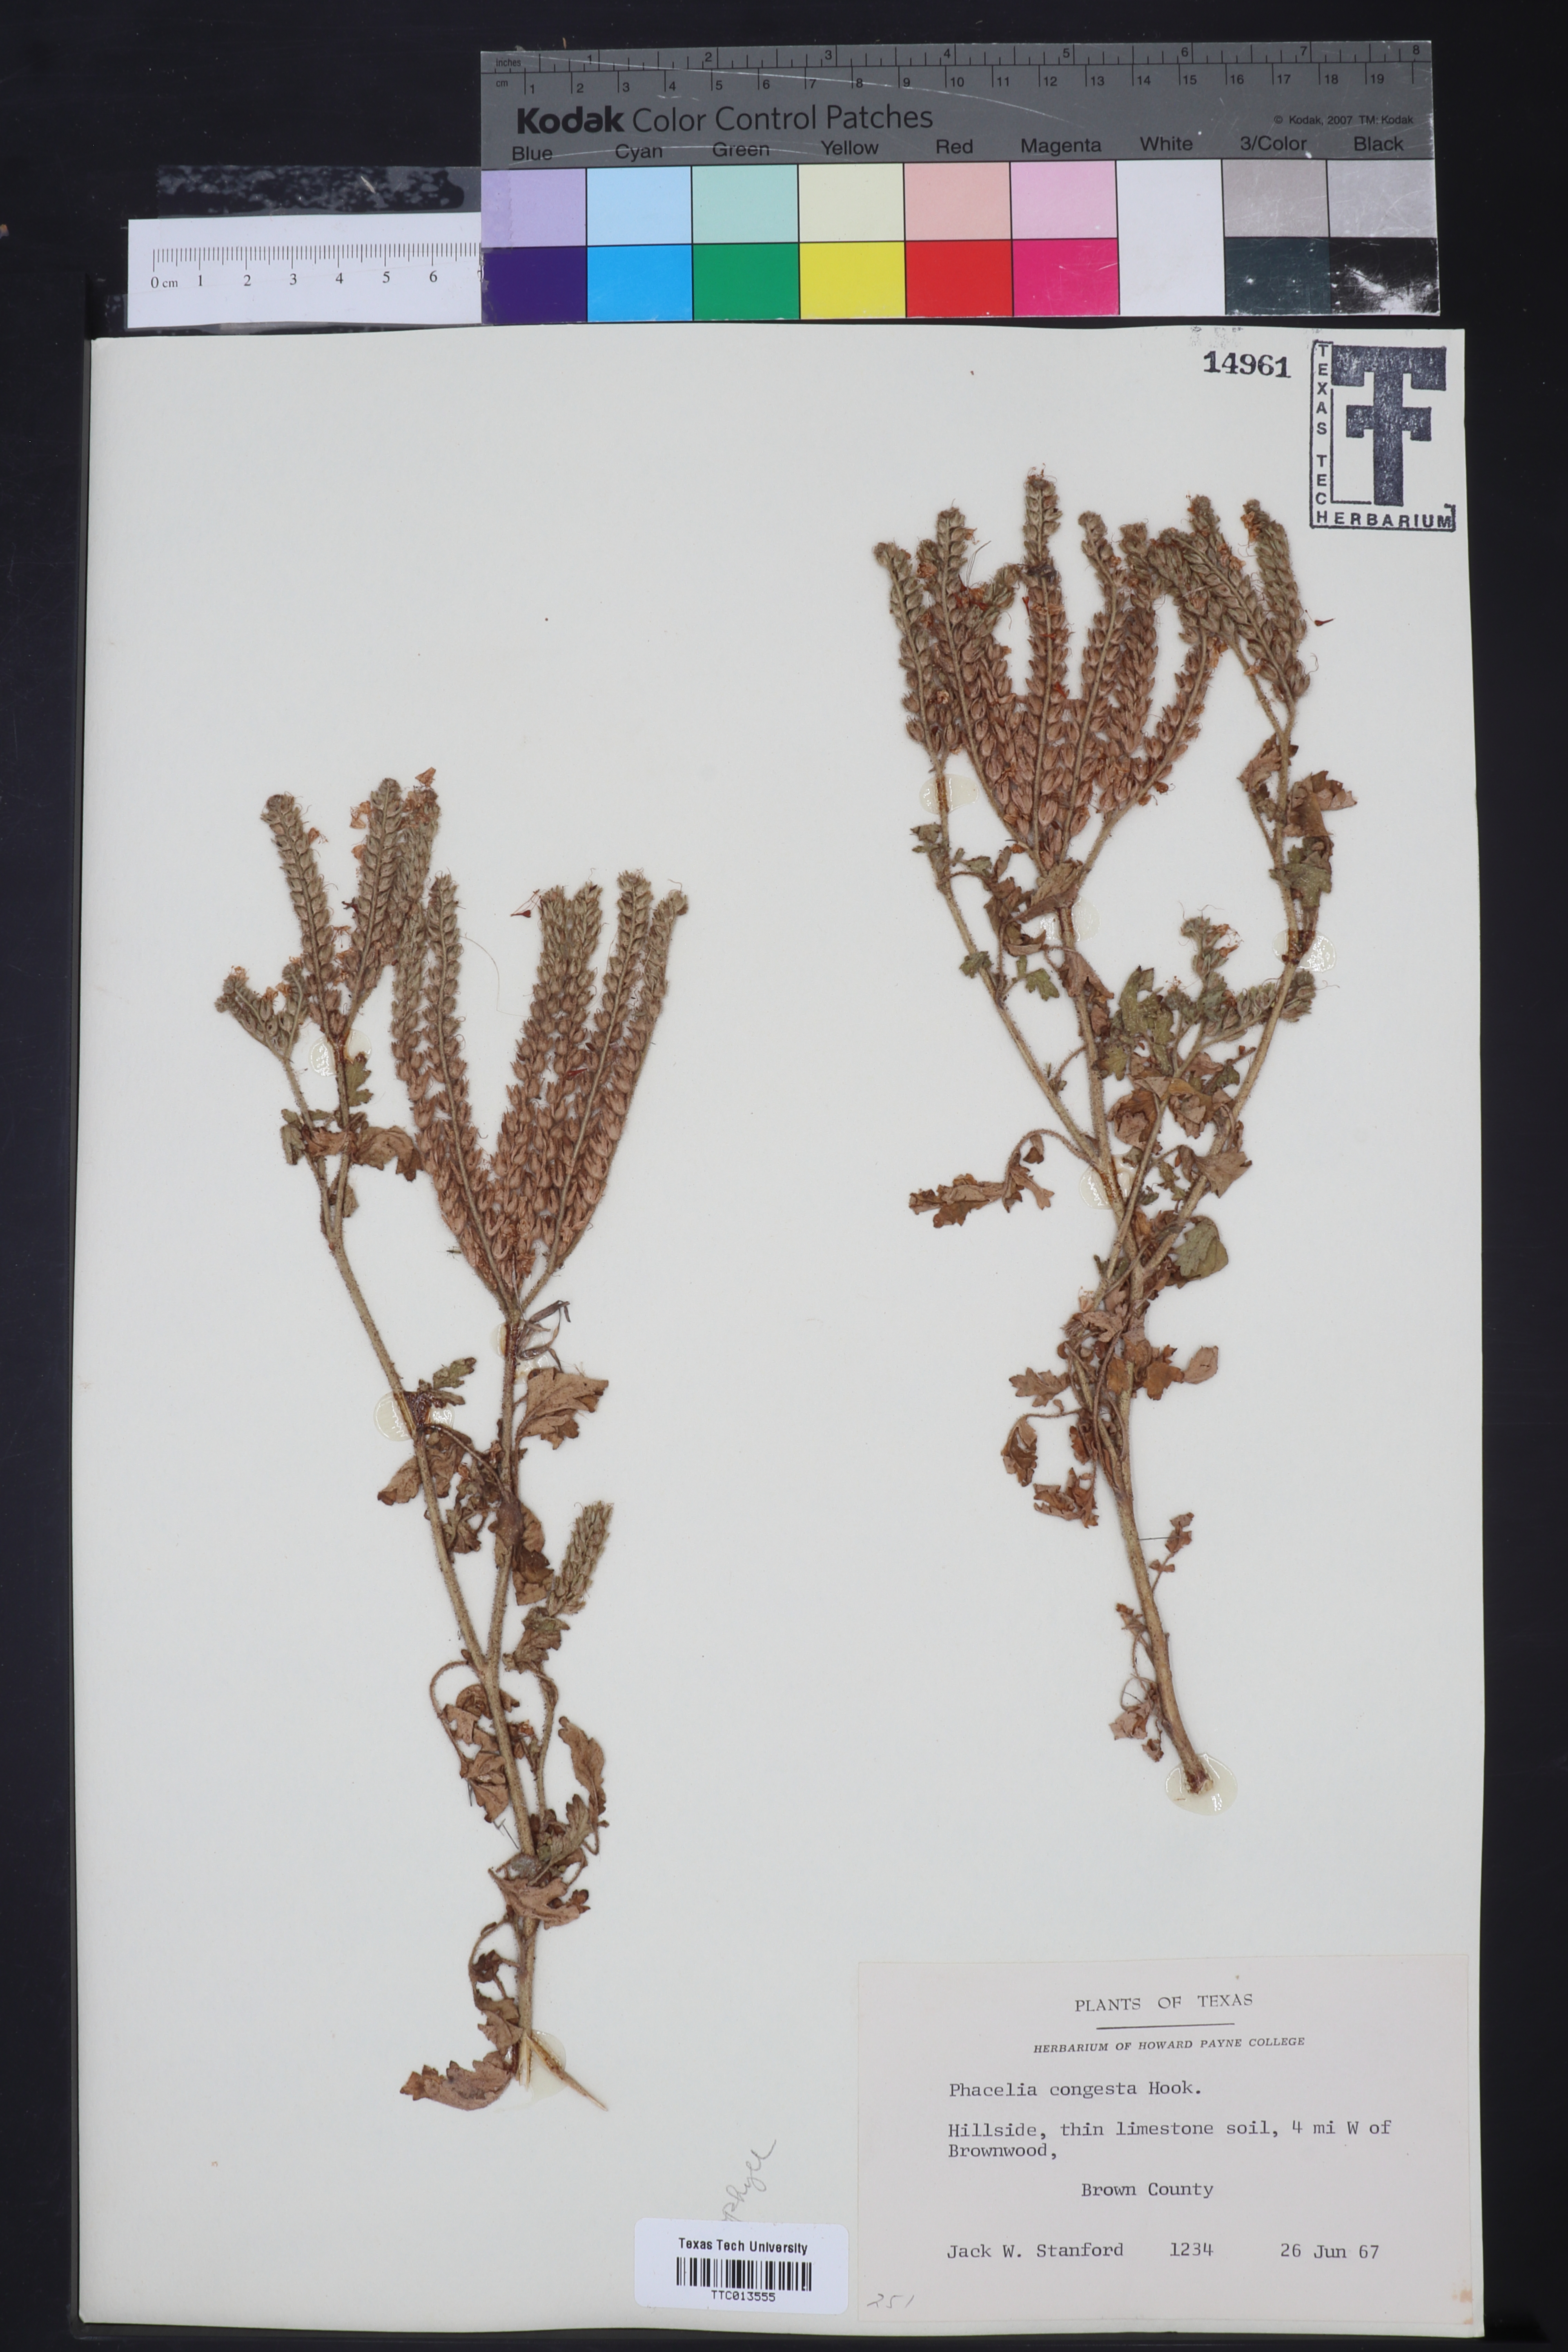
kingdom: Plantae
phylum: Tracheophyta
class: Magnoliopsida
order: Boraginales
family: Hydrophyllaceae
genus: Phacelia
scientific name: Phacelia congesta
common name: Blue curls
